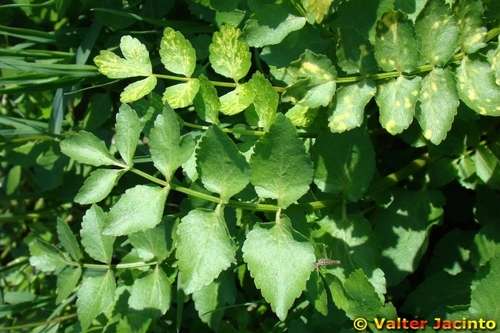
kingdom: Plantae
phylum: Tracheophyta
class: Magnoliopsida
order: Apiales
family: Apiaceae
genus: Helosciadium
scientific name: Helosciadium nodiflorum
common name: Fool's-watercress
